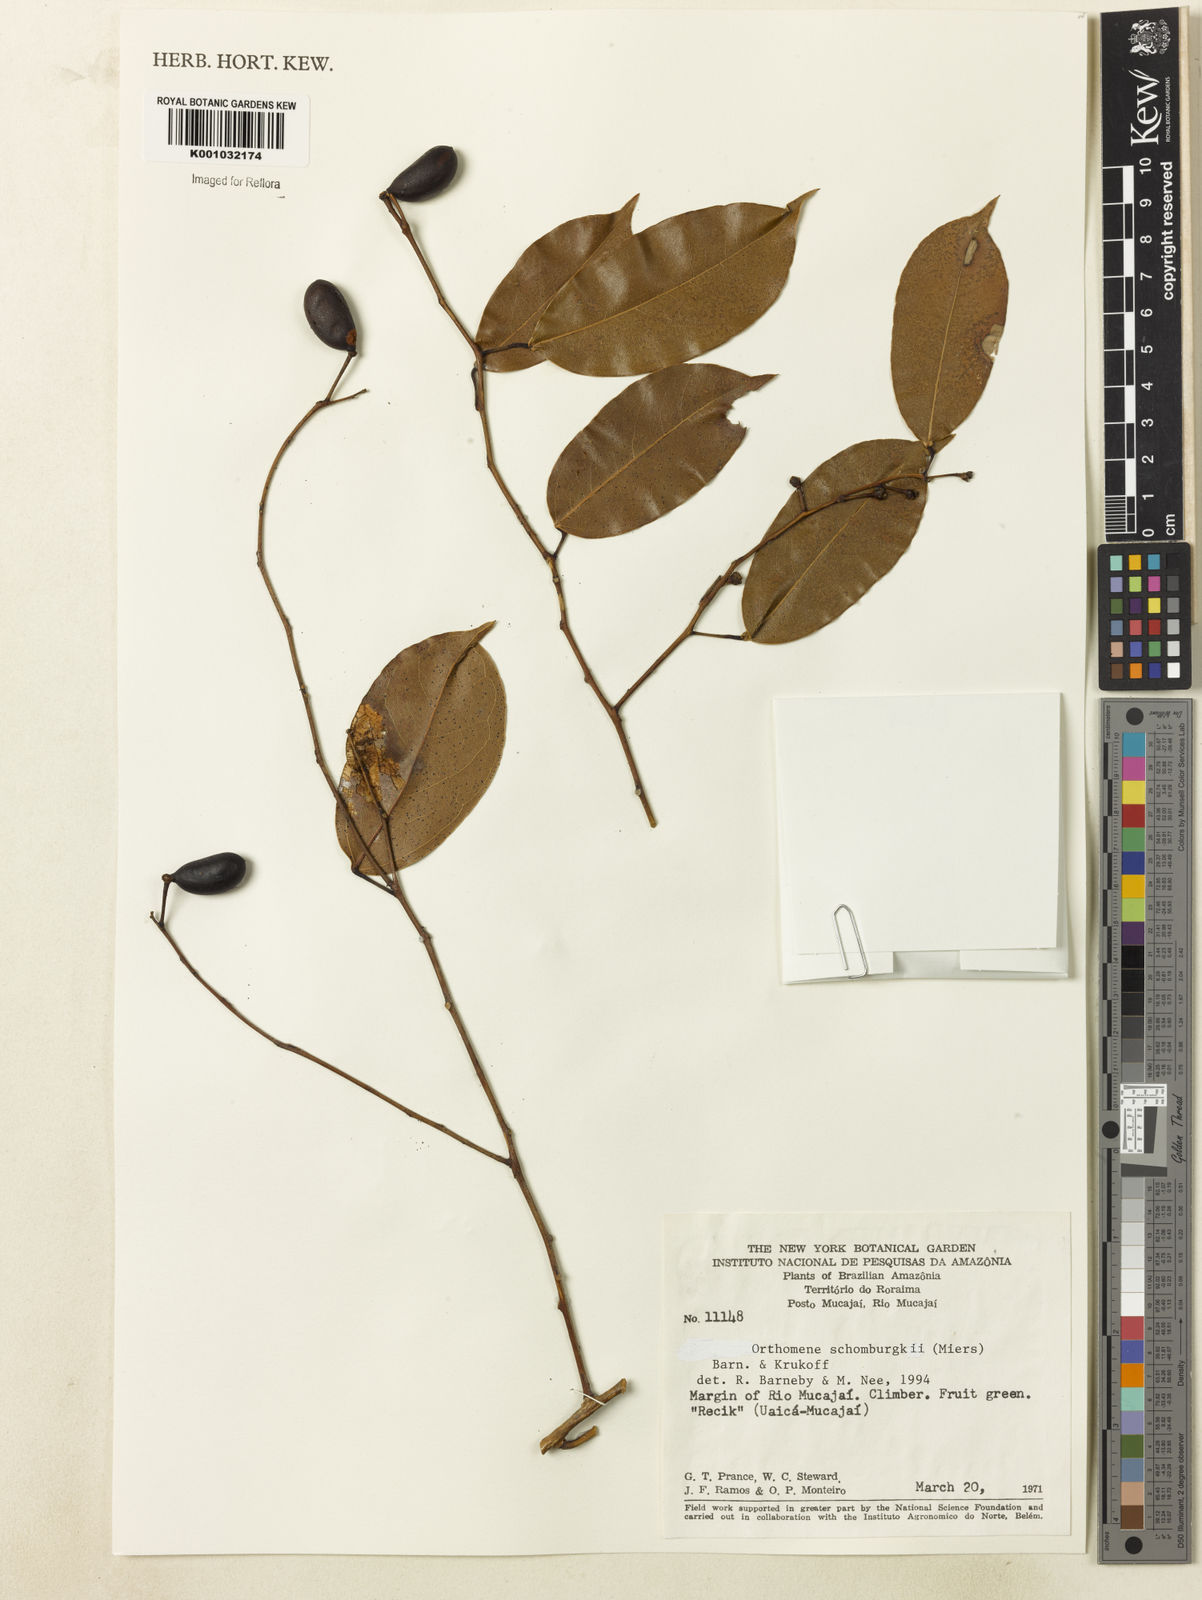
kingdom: Plantae
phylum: Tracheophyta
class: Magnoliopsida
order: Ranunculales
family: Menispermaceae
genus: Orthomene
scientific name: Orthomene schomburgkii
